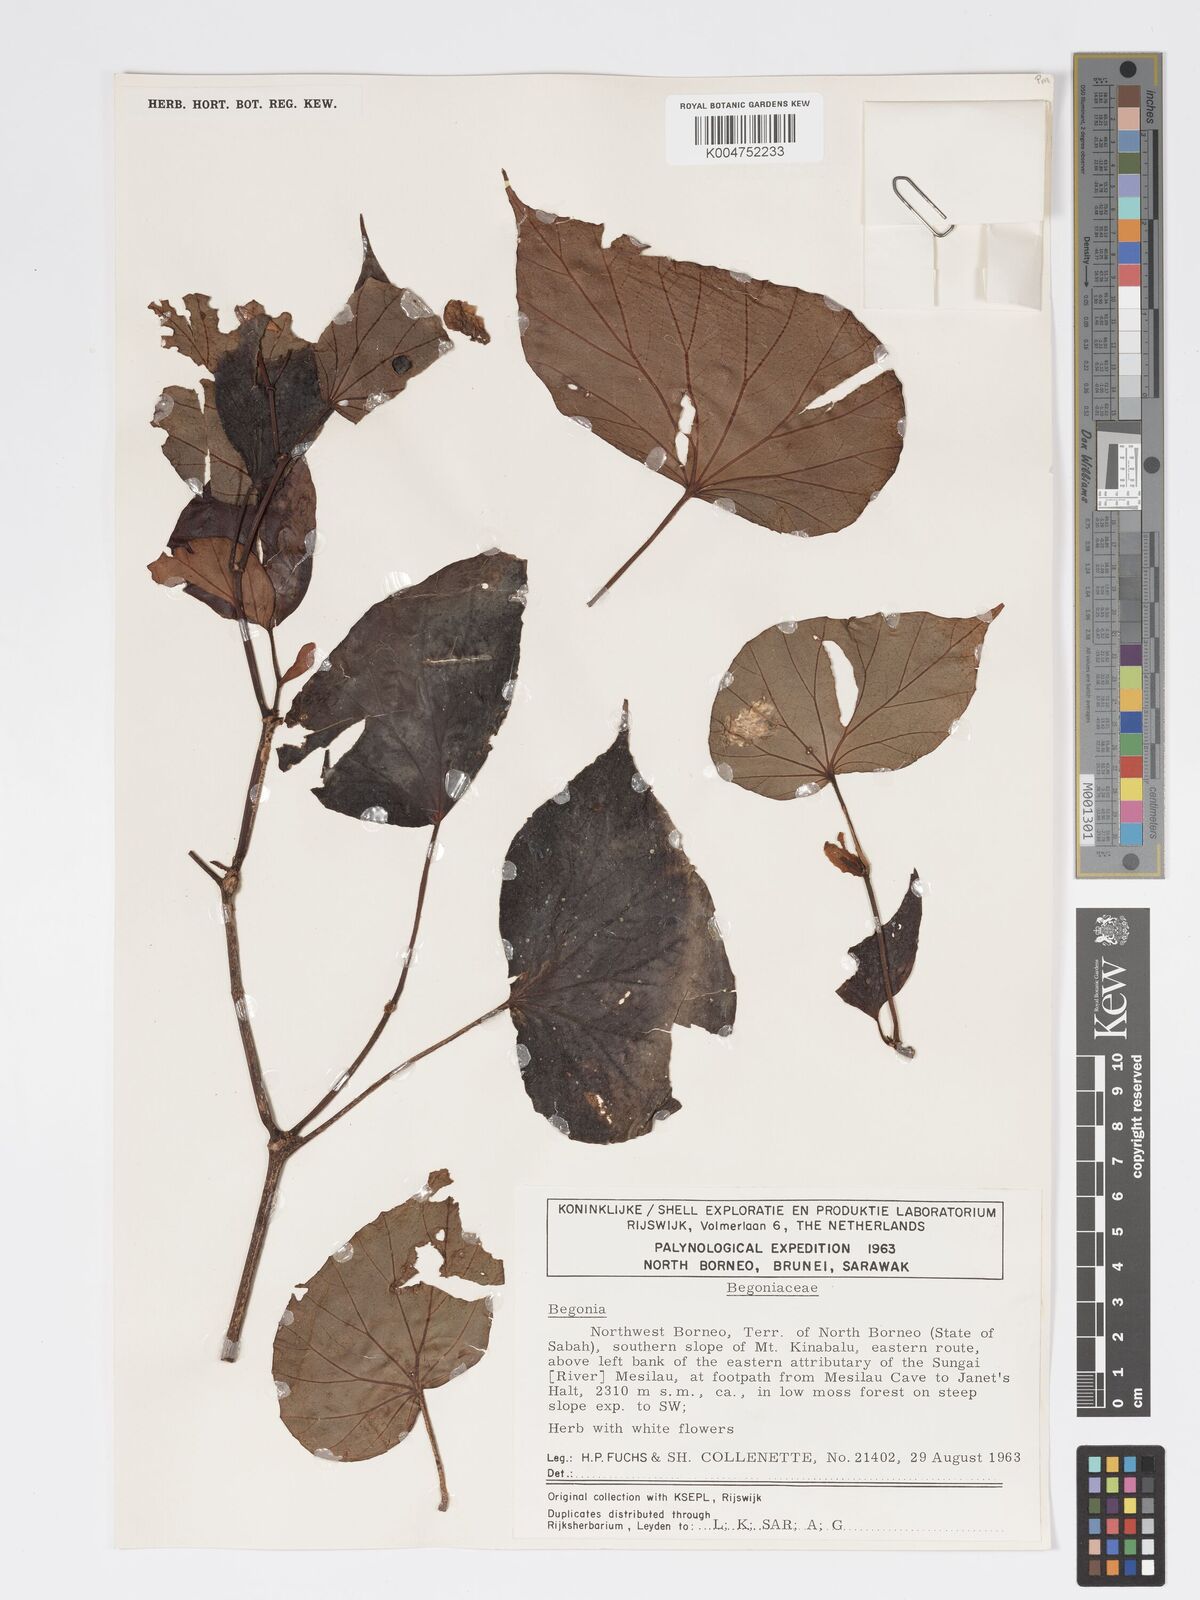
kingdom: Plantae
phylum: Tracheophyta
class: Magnoliopsida
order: Cucurbitales
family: Begoniaceae
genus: Begonia
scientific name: Begonia burbidgei
